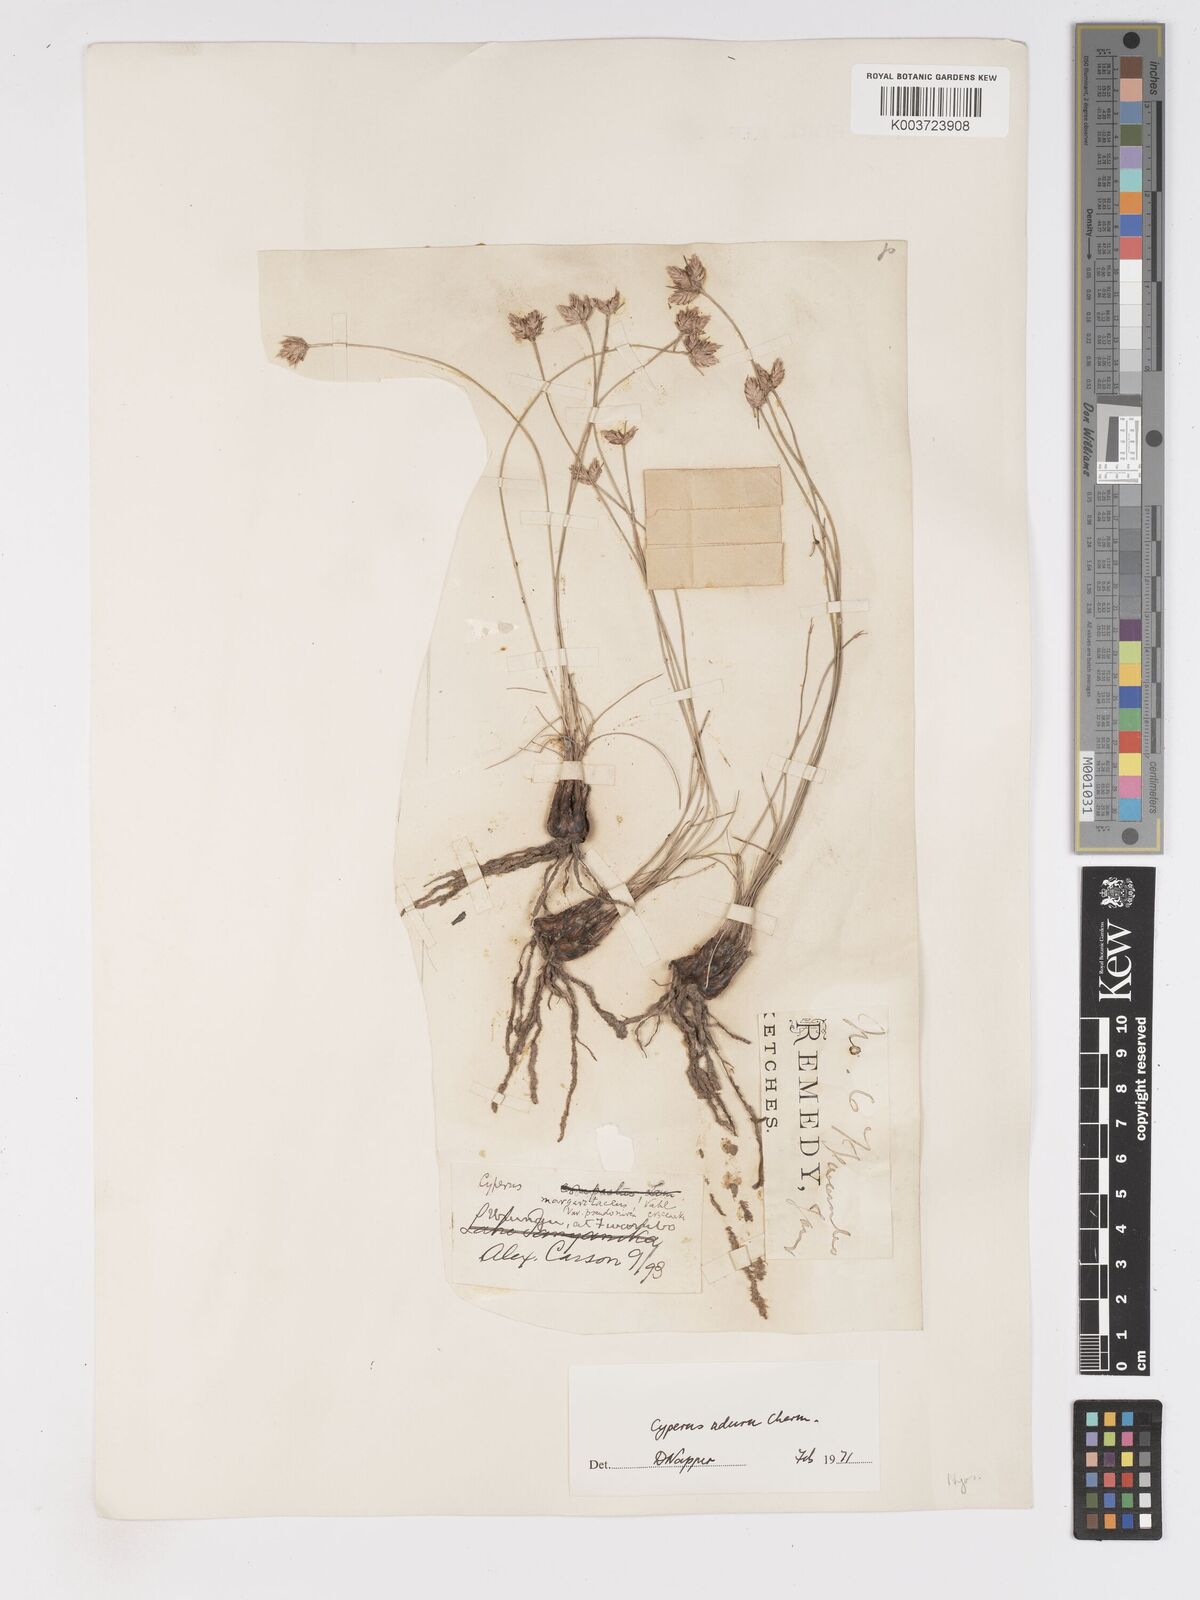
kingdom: Plantae
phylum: Tracheophyta
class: Liliopsida
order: Poales
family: Cyperaceae
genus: Cyperus
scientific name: Cyperus nduru
